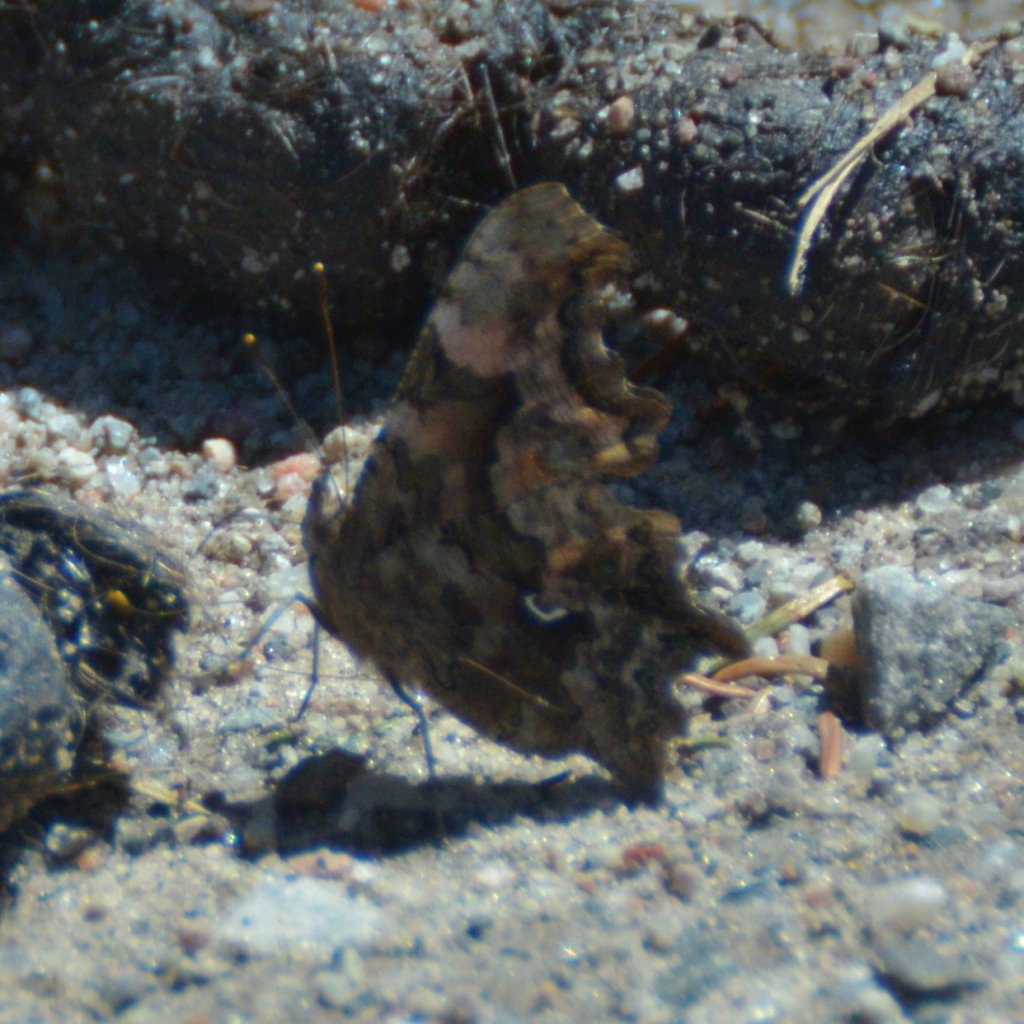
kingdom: Animalia
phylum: Arthropoda
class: Insecta
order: Lepidoptera
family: Nymphalidae
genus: Polygonia
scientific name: Polygonia faunus
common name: Green Comma
